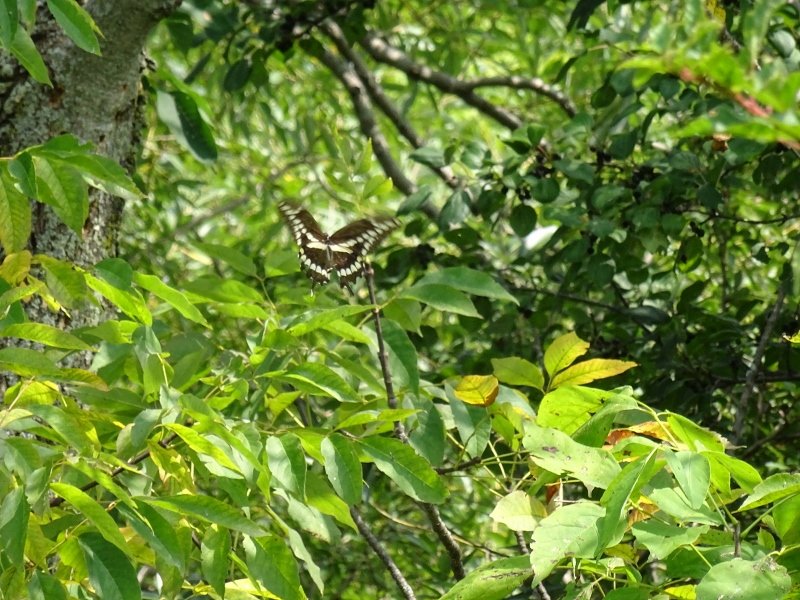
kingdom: Animalia
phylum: Arthropoda
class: Insecta
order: Lepidoptera
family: Papilionidae
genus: Papilio
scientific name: Papilio cresphontes
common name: Eastern Giant Swallowtail
